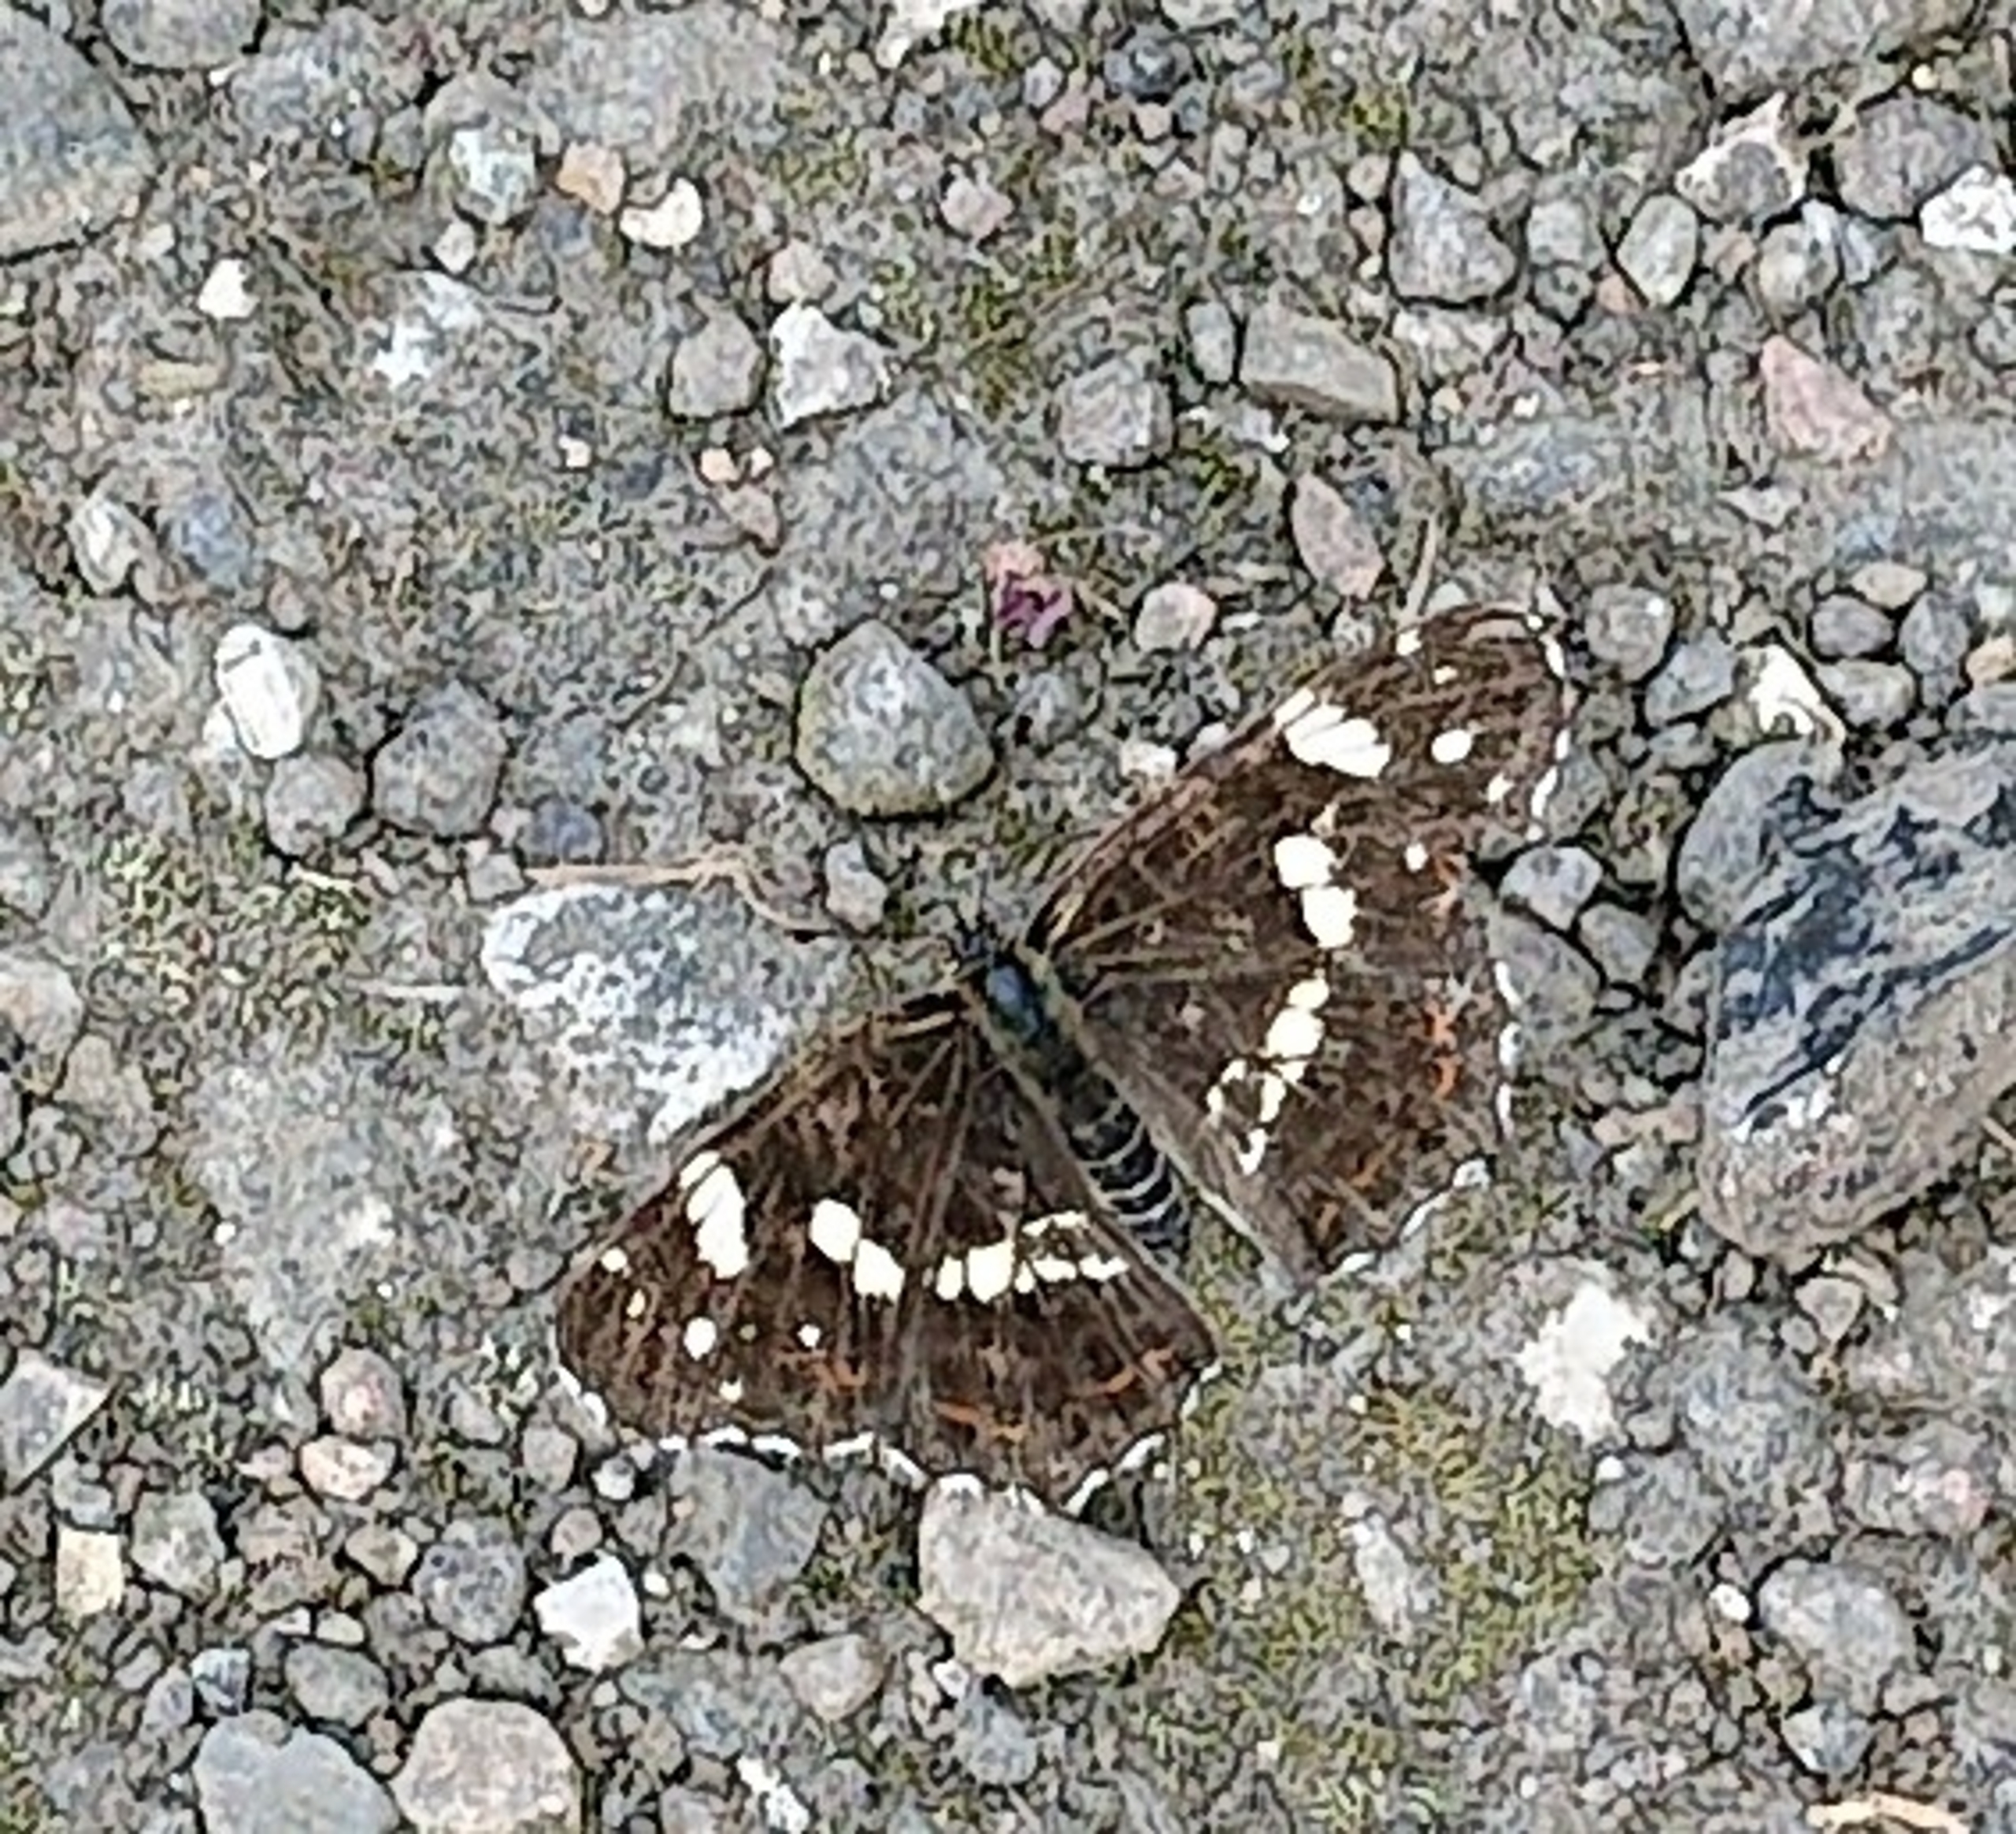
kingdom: Animalia
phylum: Arthropoda
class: Insecta
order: Lepidoptera
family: Nymphalidae
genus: Araschnia
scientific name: Araschnia levana
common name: Nældesommerfugl
